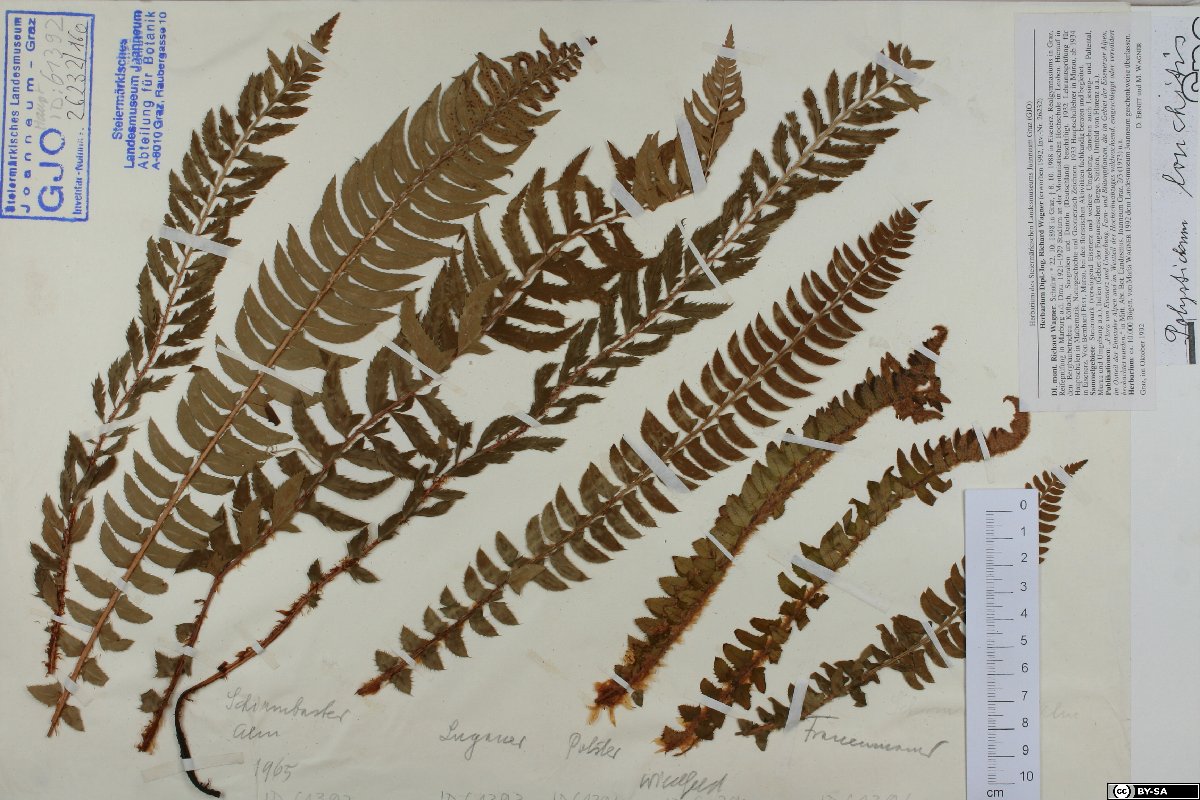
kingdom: Plantae
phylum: Tracheophyta
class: Polypodiopsida
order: Polypodiales
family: Dryopteridaceae
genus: Polystichum
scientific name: Polystichum lonchitis
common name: Holly fern
